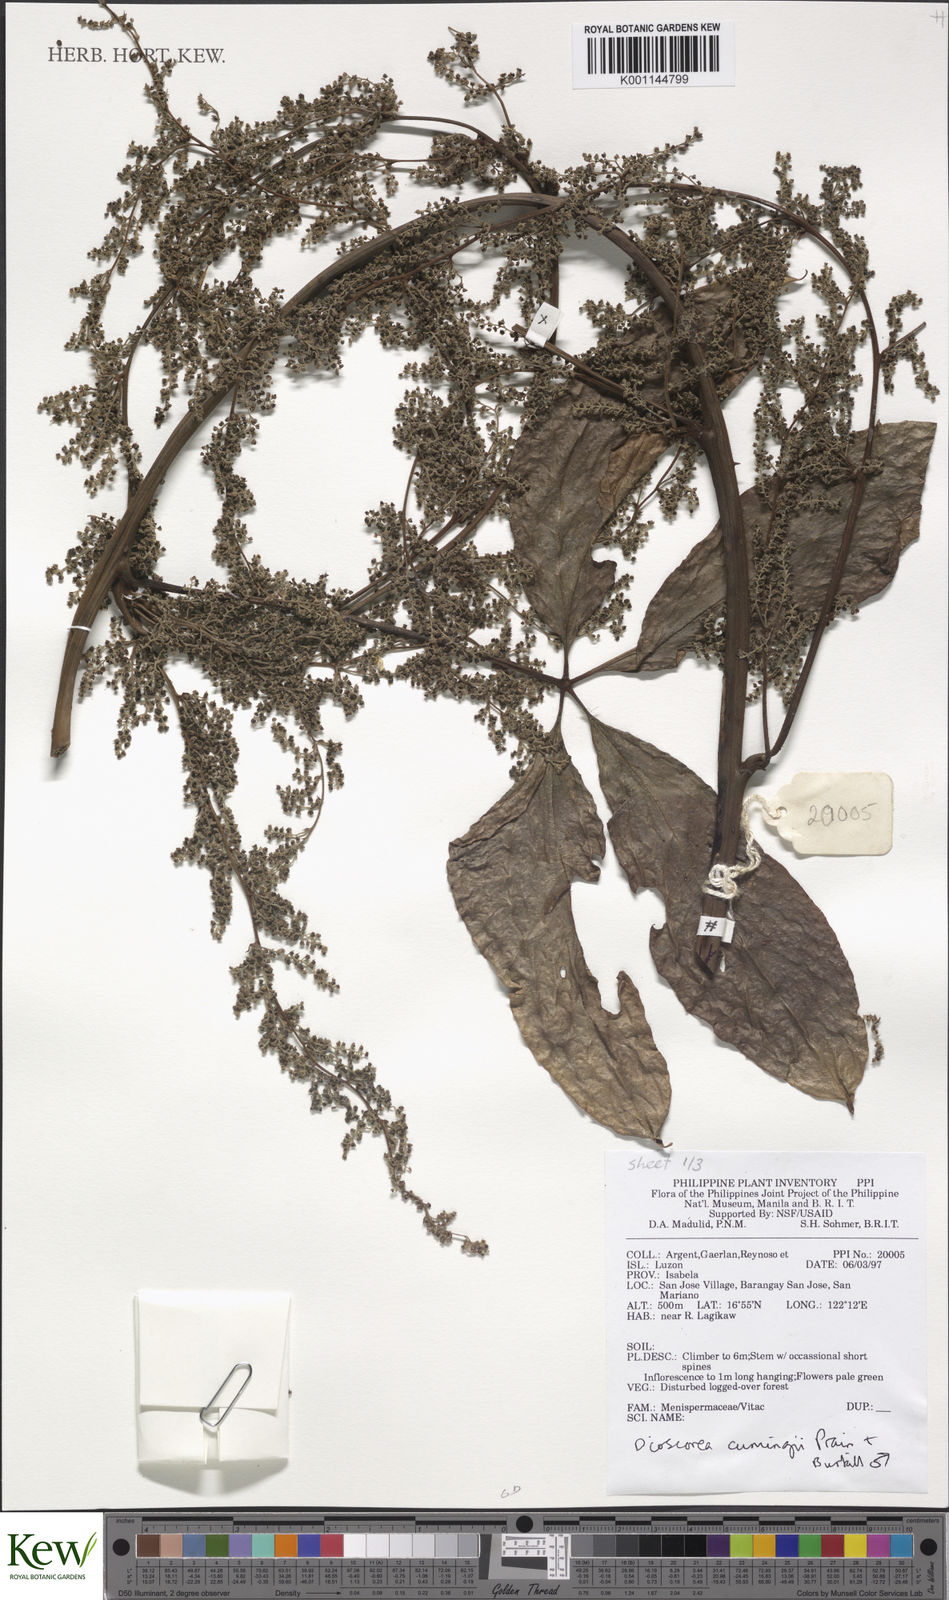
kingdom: Plantae
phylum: Tracheophyta
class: Liliopsida
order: Dioscoreales
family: Dioscoreaceae
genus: Dioscorea
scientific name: Dioscorea cumingii
